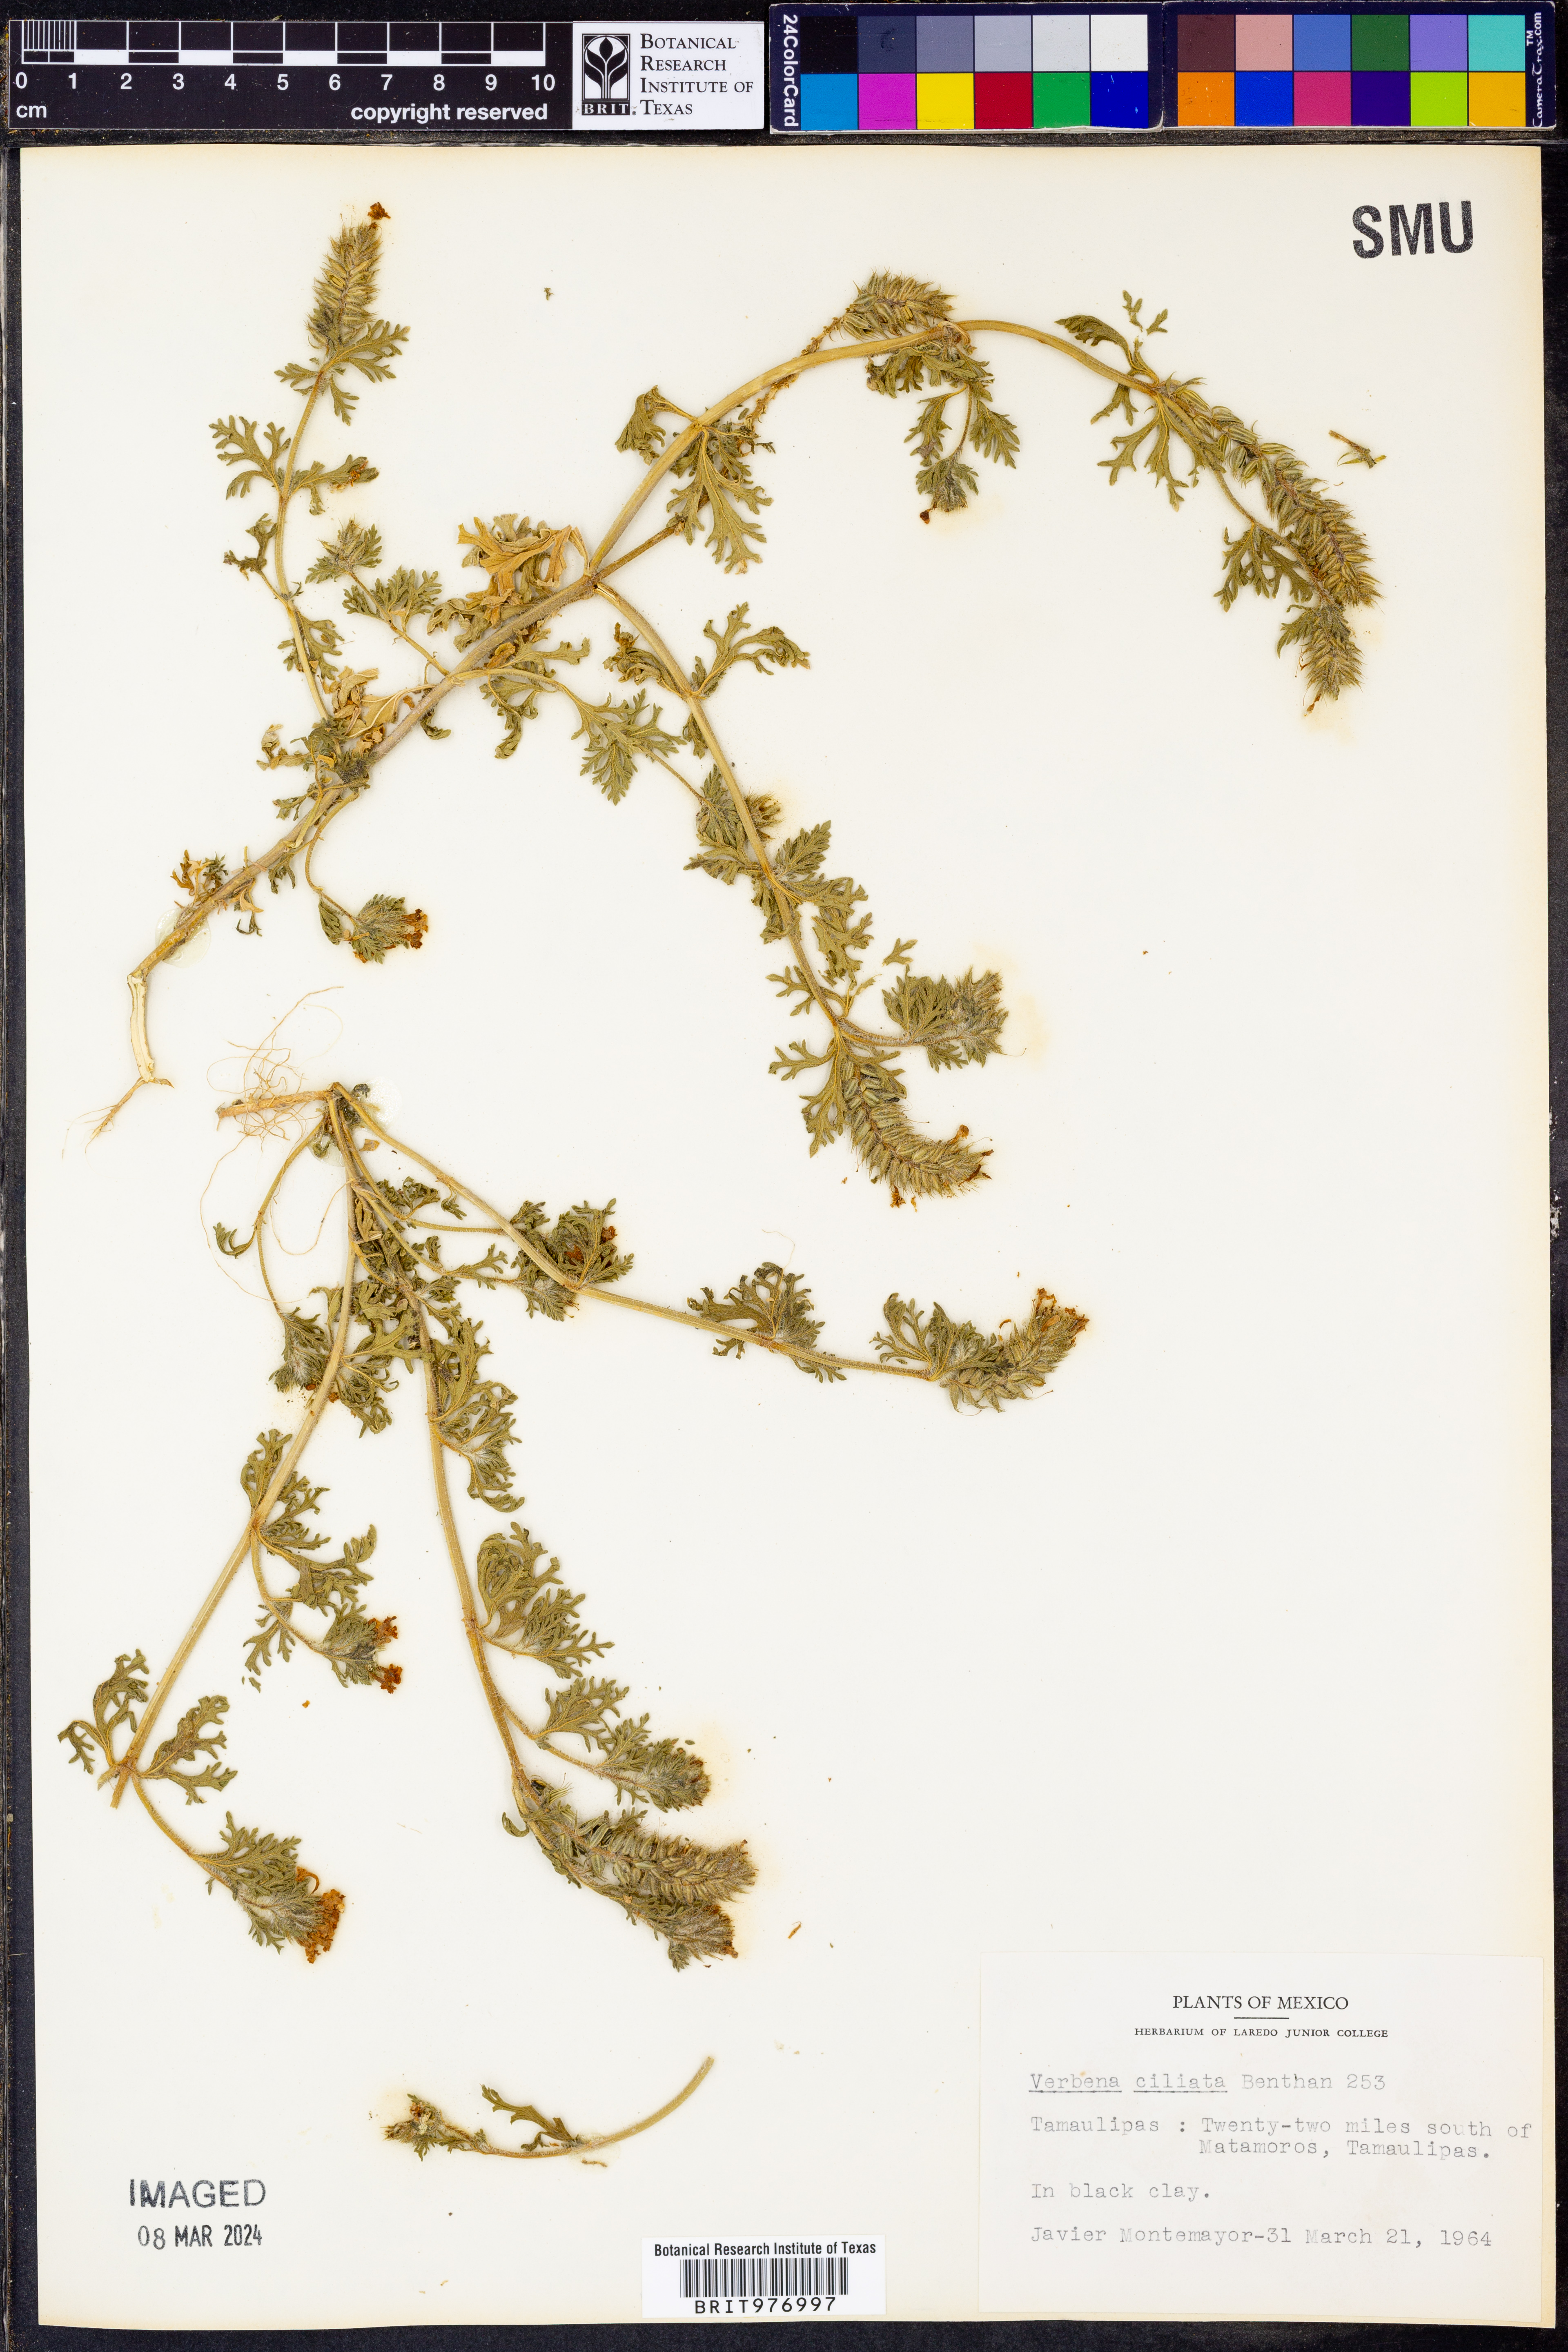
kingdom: Plantae
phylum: Tracheophyta
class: Magnoliopsida
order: Lamiales
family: Verbenaceae
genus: Verbena
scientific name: Verbena polyantha
